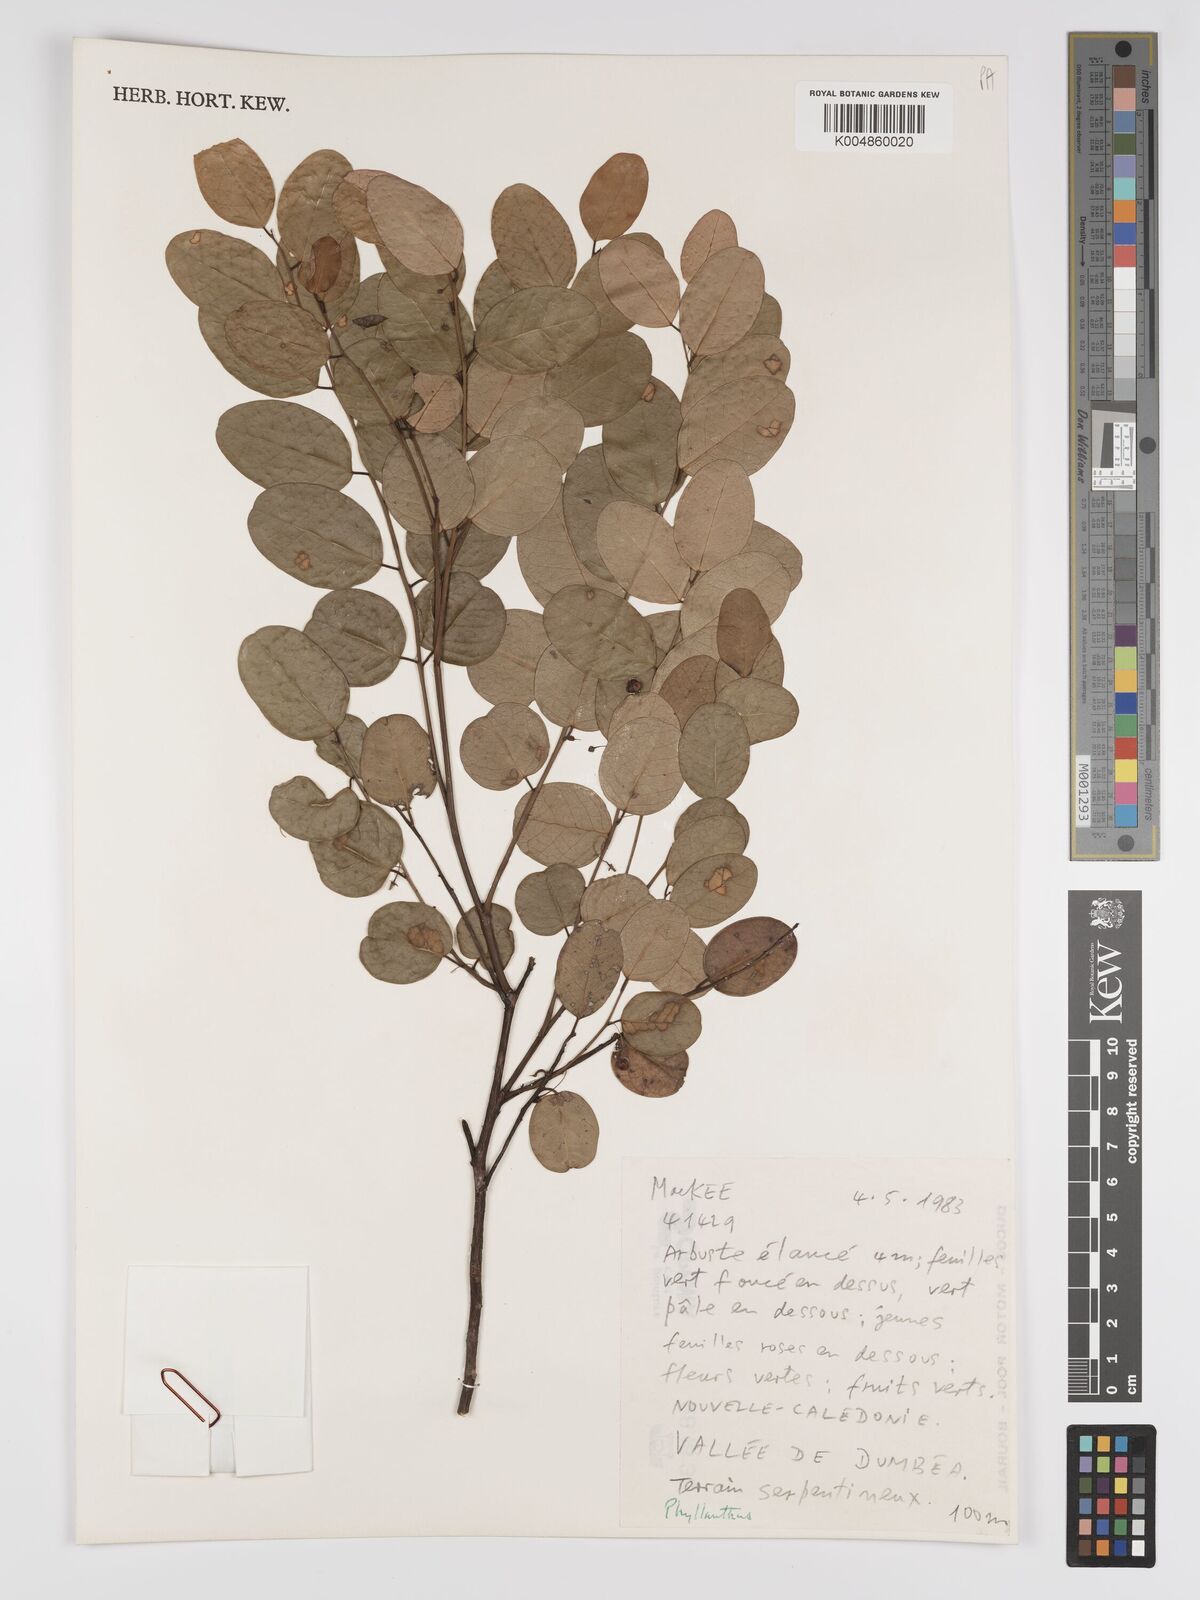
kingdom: Plantae
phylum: Tracheophyta
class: Magnoliopsida
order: Malpighiales
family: Phyllanthaceae
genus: Phyllanthus
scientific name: Phyllanthus
